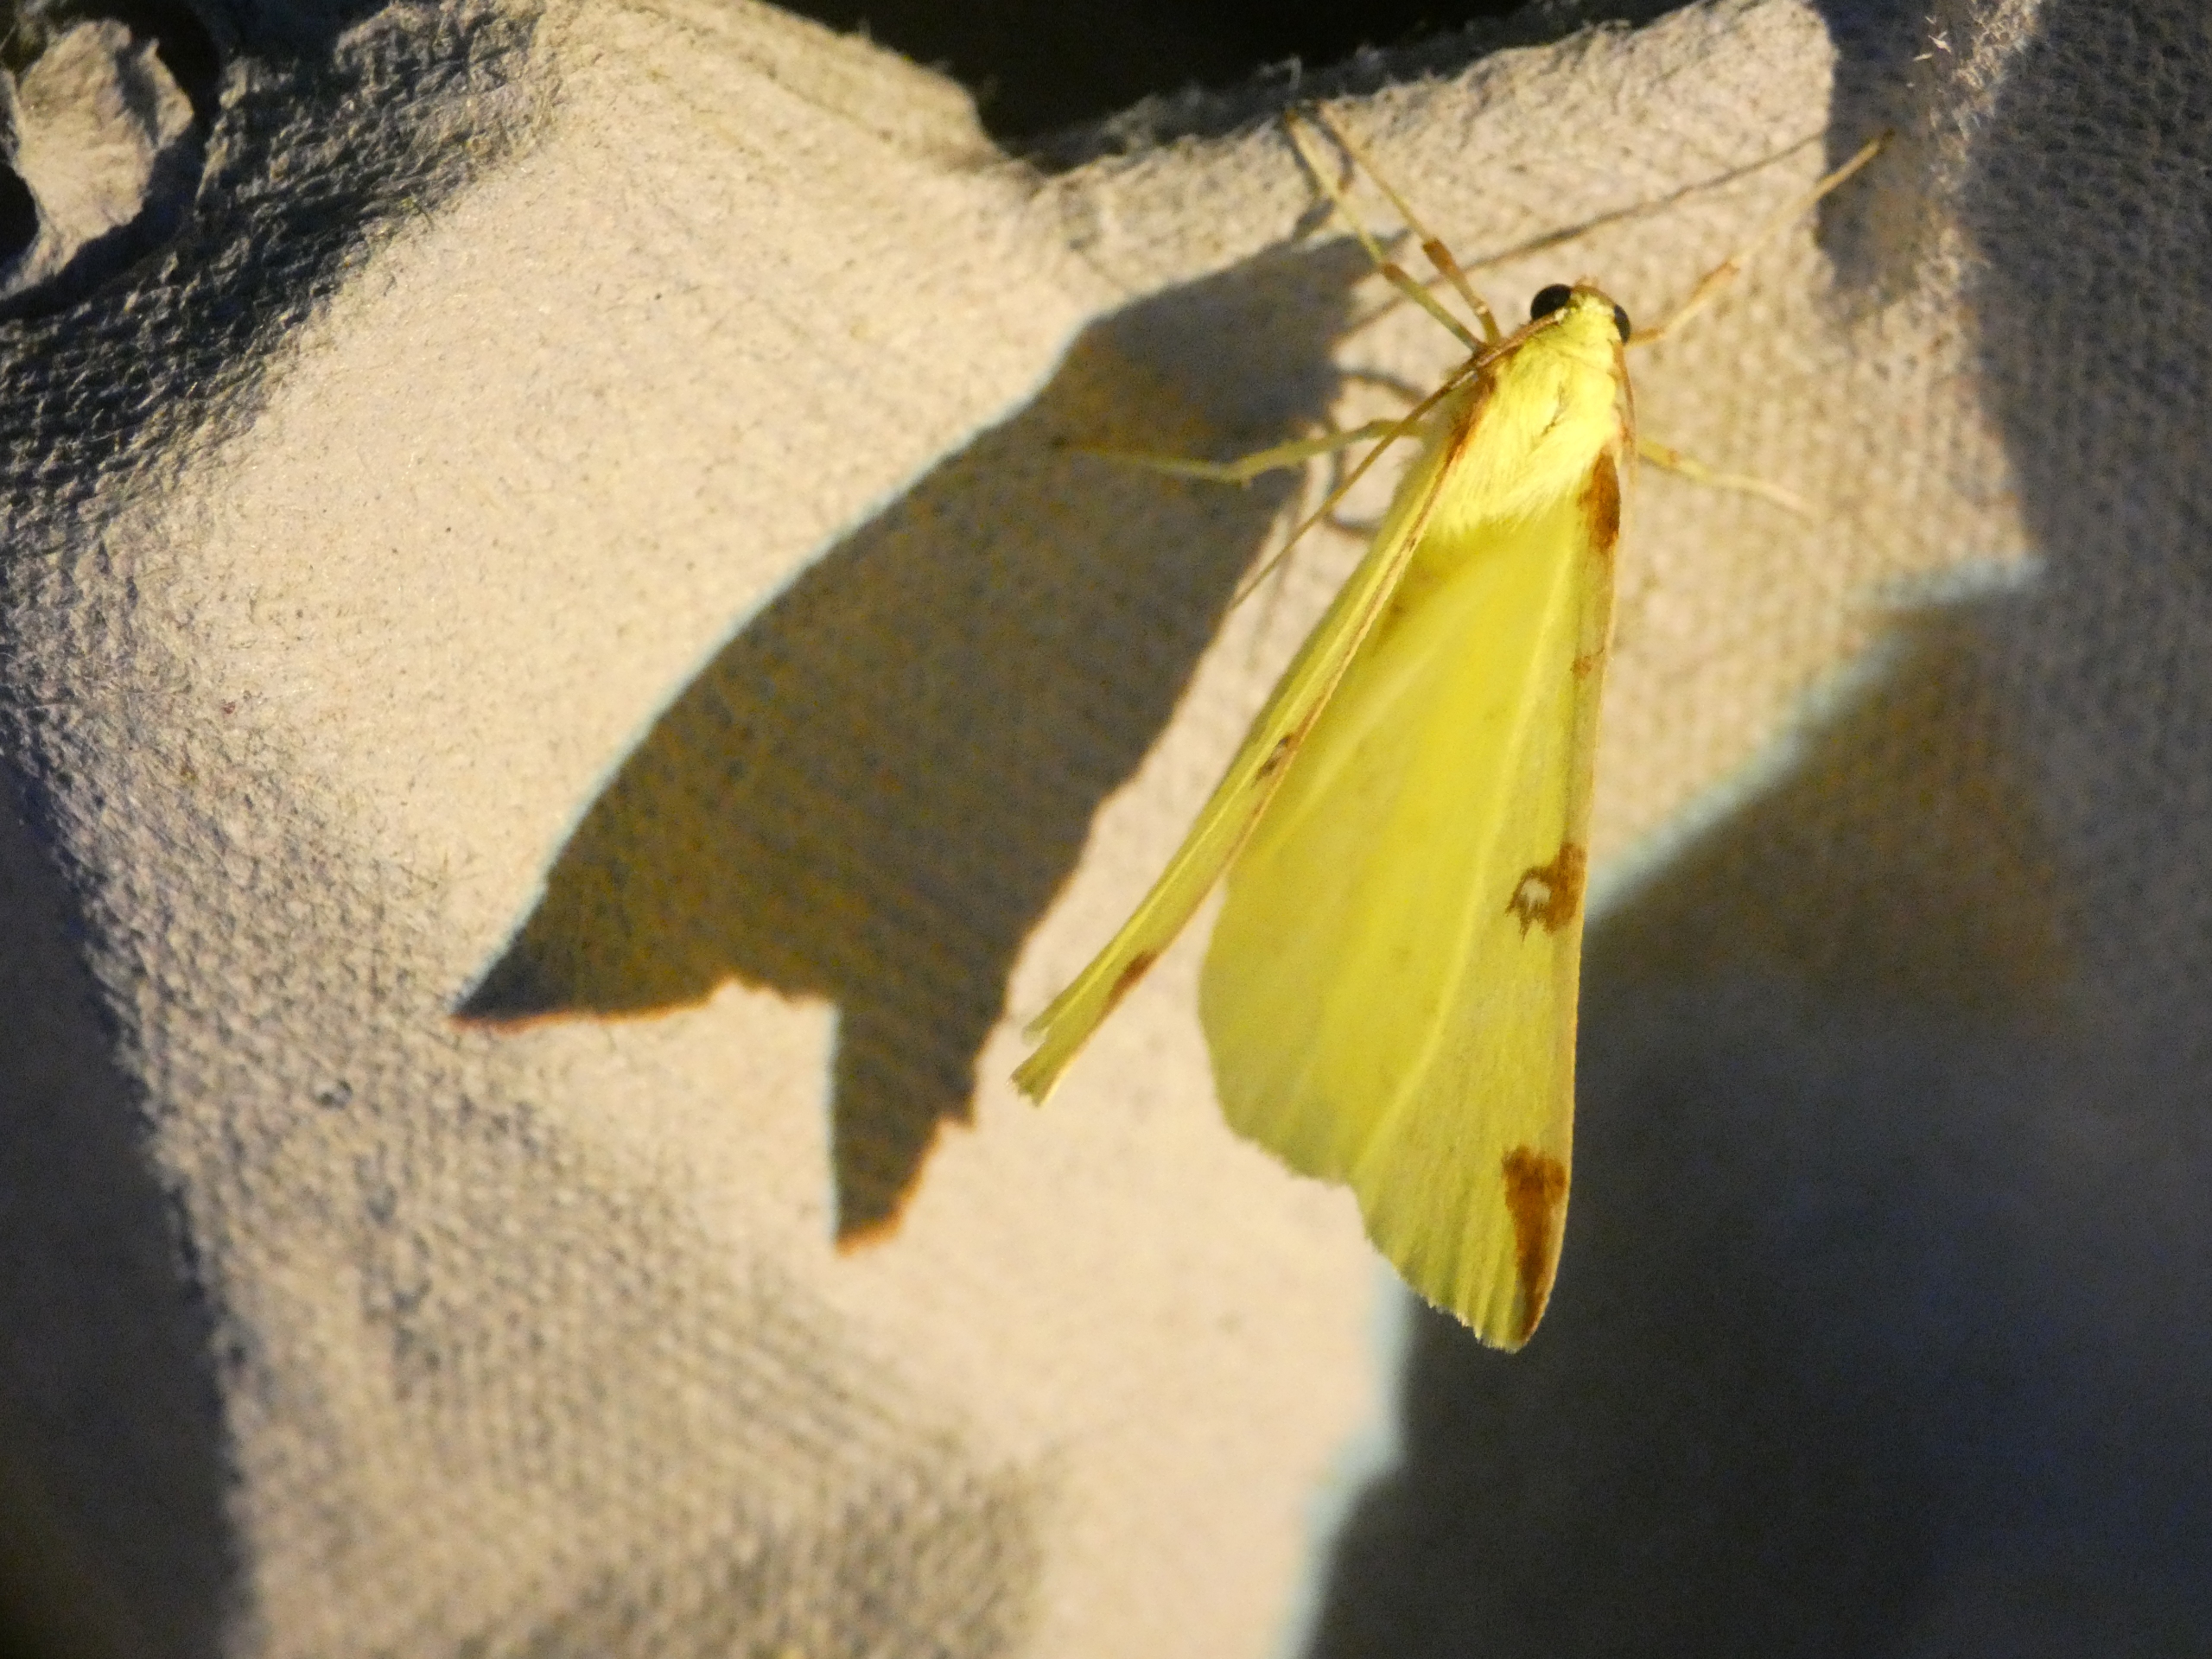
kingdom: Animalia
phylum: Arthropoda
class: Insecta
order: Lepidoptera
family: Geometridae
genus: Opisthograptis
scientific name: Opisthograptis luteolata
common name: Citronmåler
